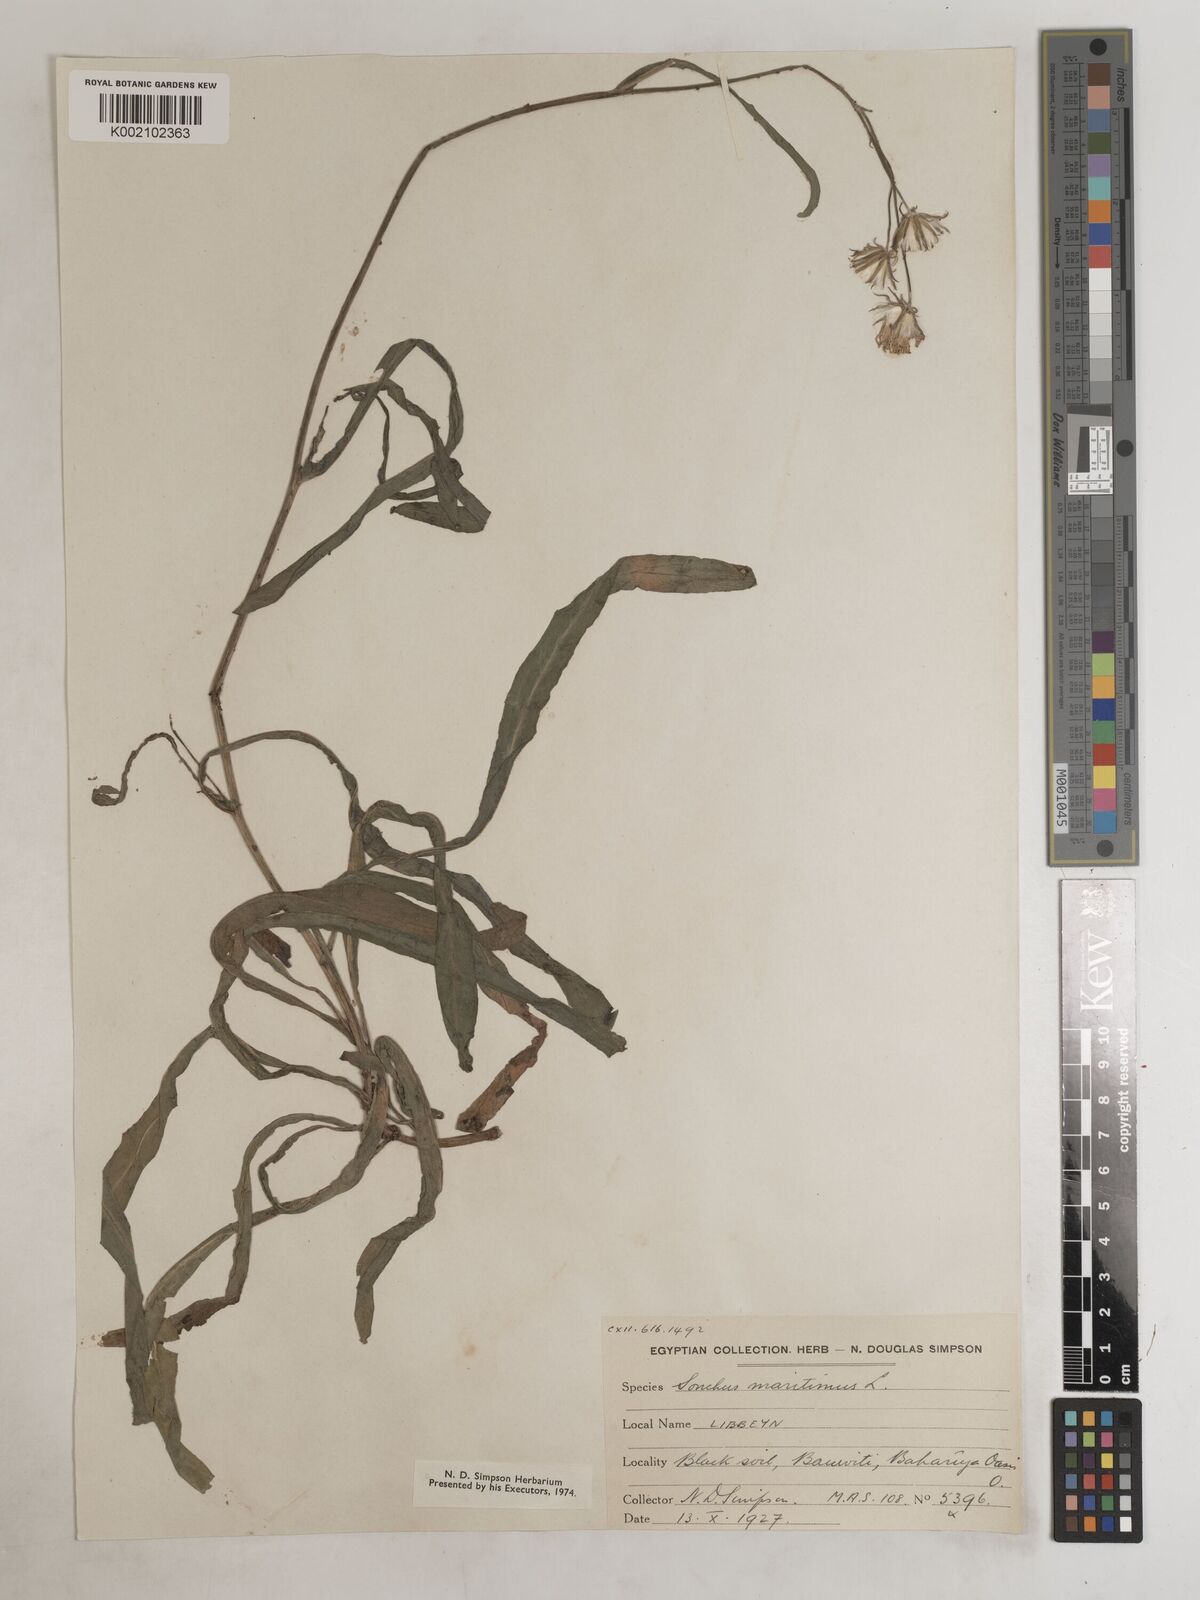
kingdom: Plantae
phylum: Tracheophyta
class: Magnoliopsida
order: Asterales
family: Asteraceae
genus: Sonchus
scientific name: Sonchus maritimus
